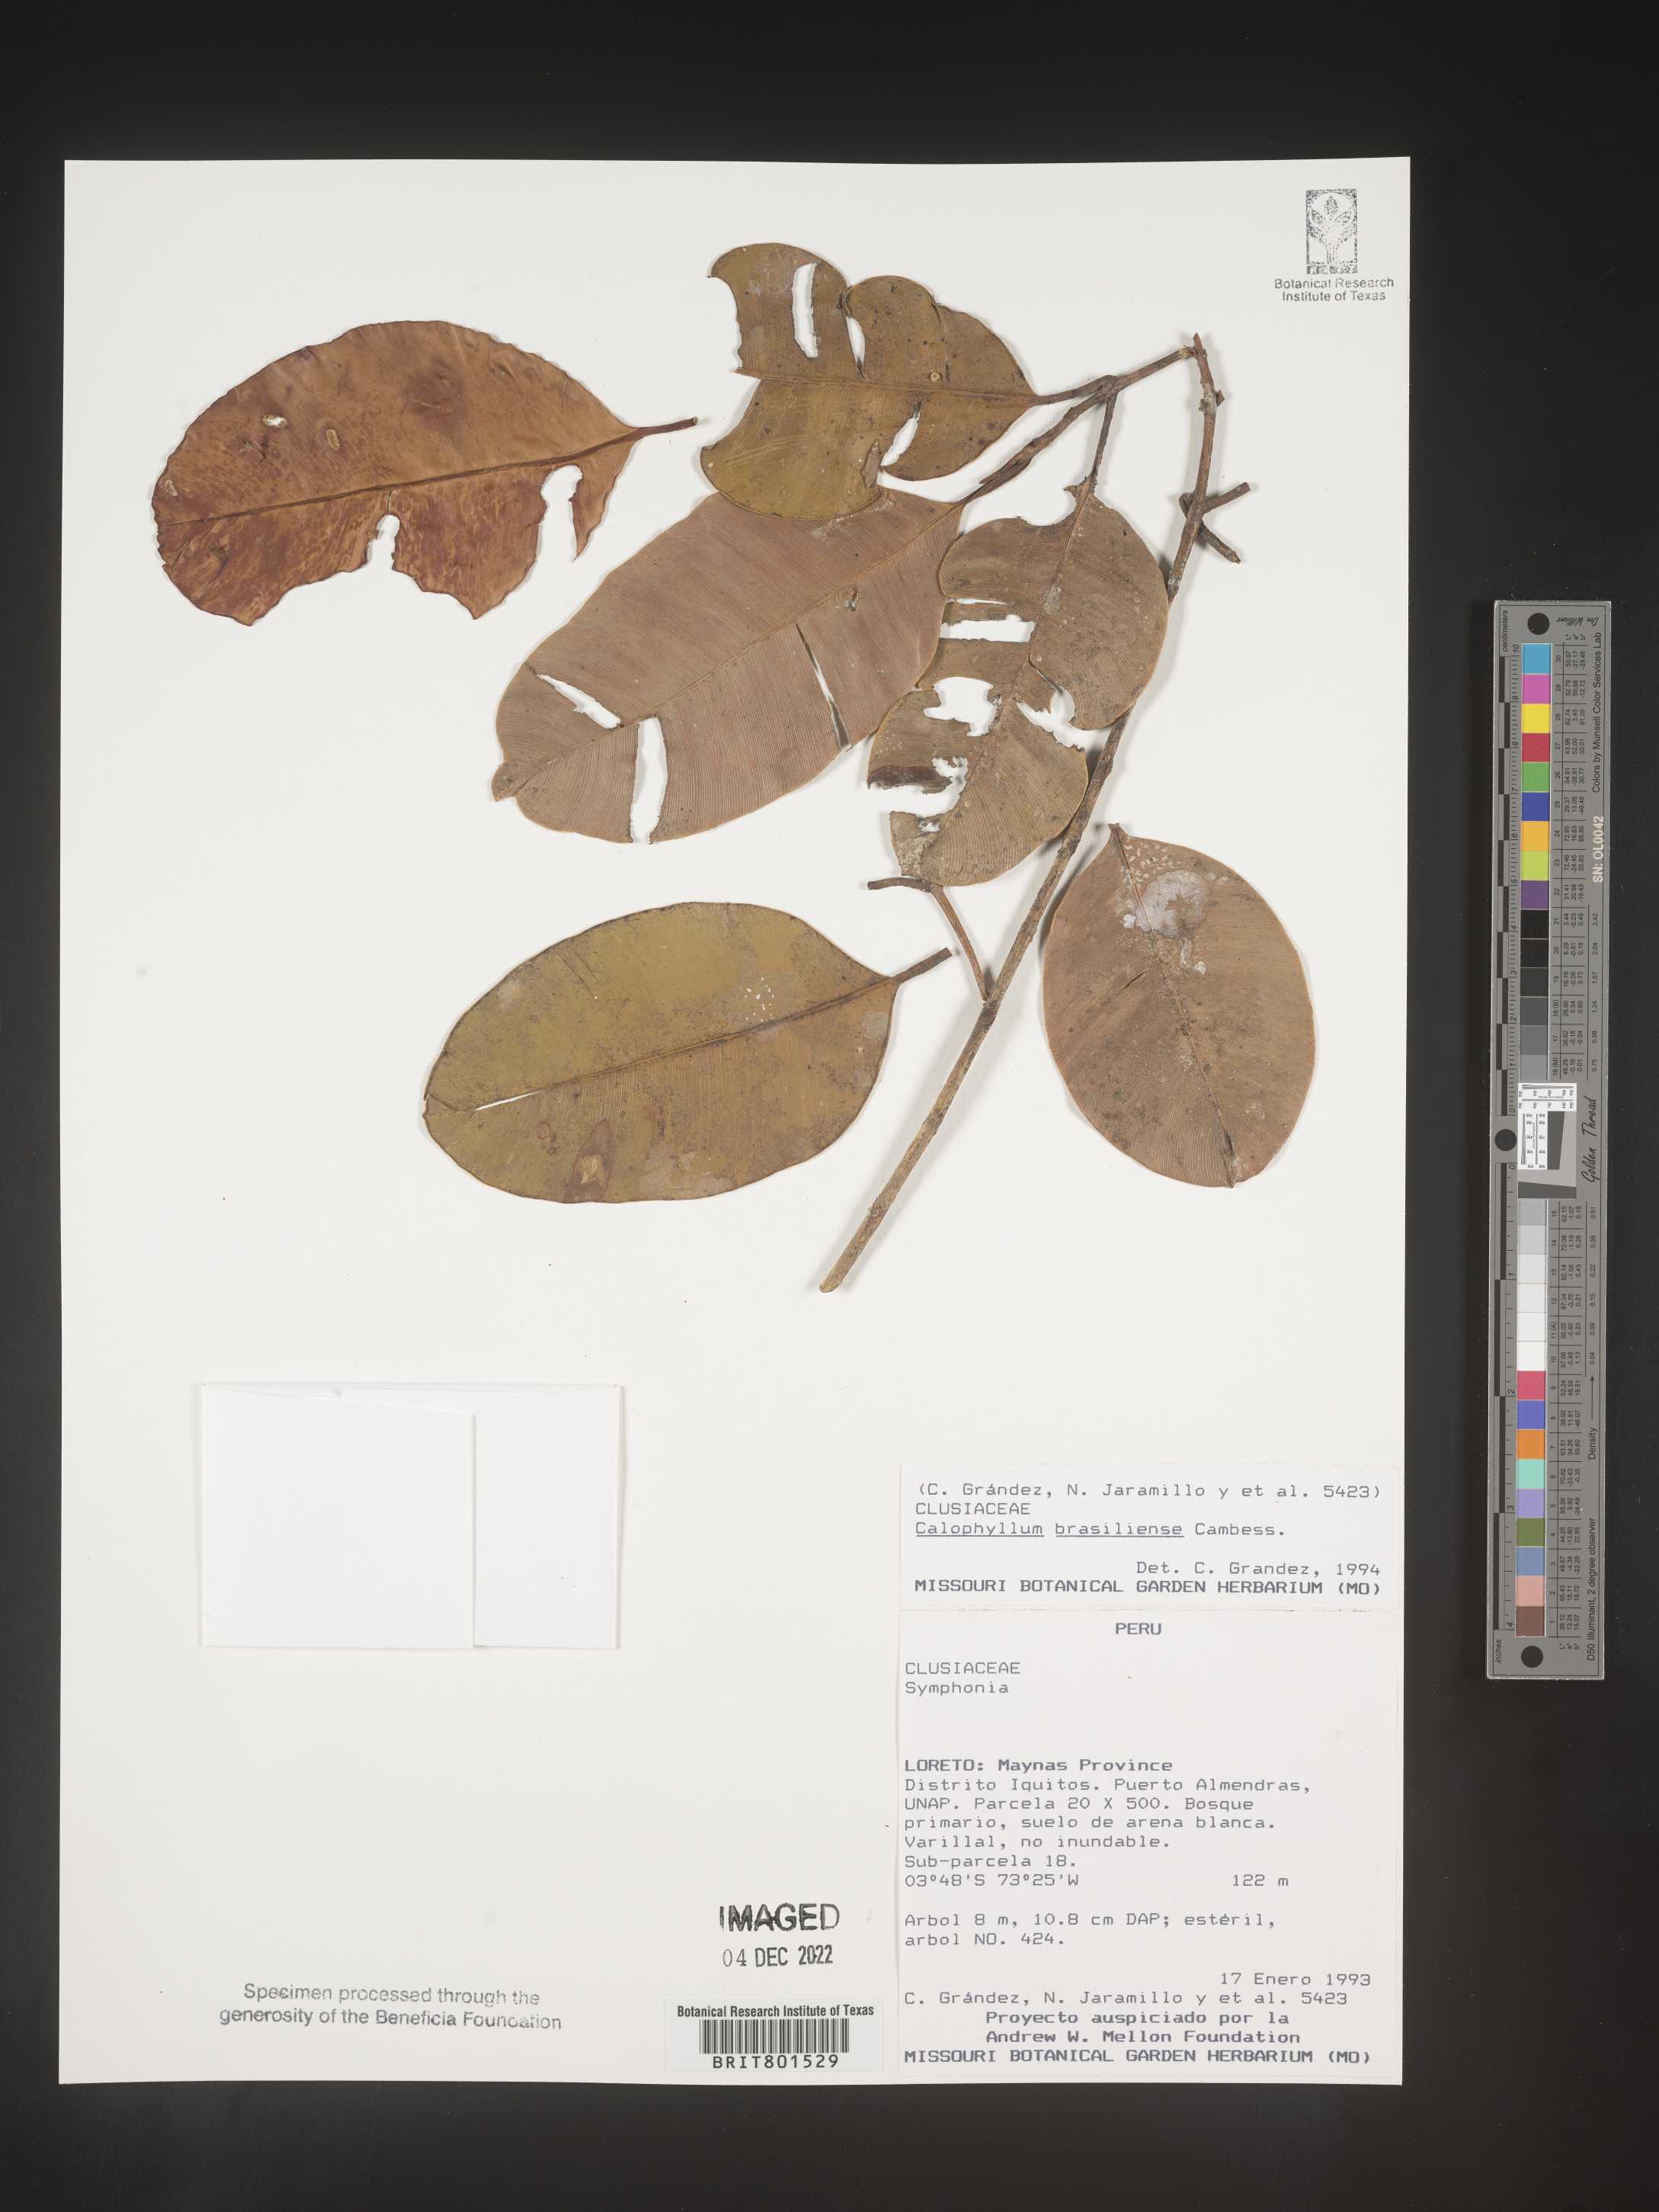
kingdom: Plantae
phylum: Tracheophyta
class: Magnoliopsida
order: Malpighiales
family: Calophyllaceae
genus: Calophyllum
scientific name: Calophyllum brasiliense
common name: Santa maria
